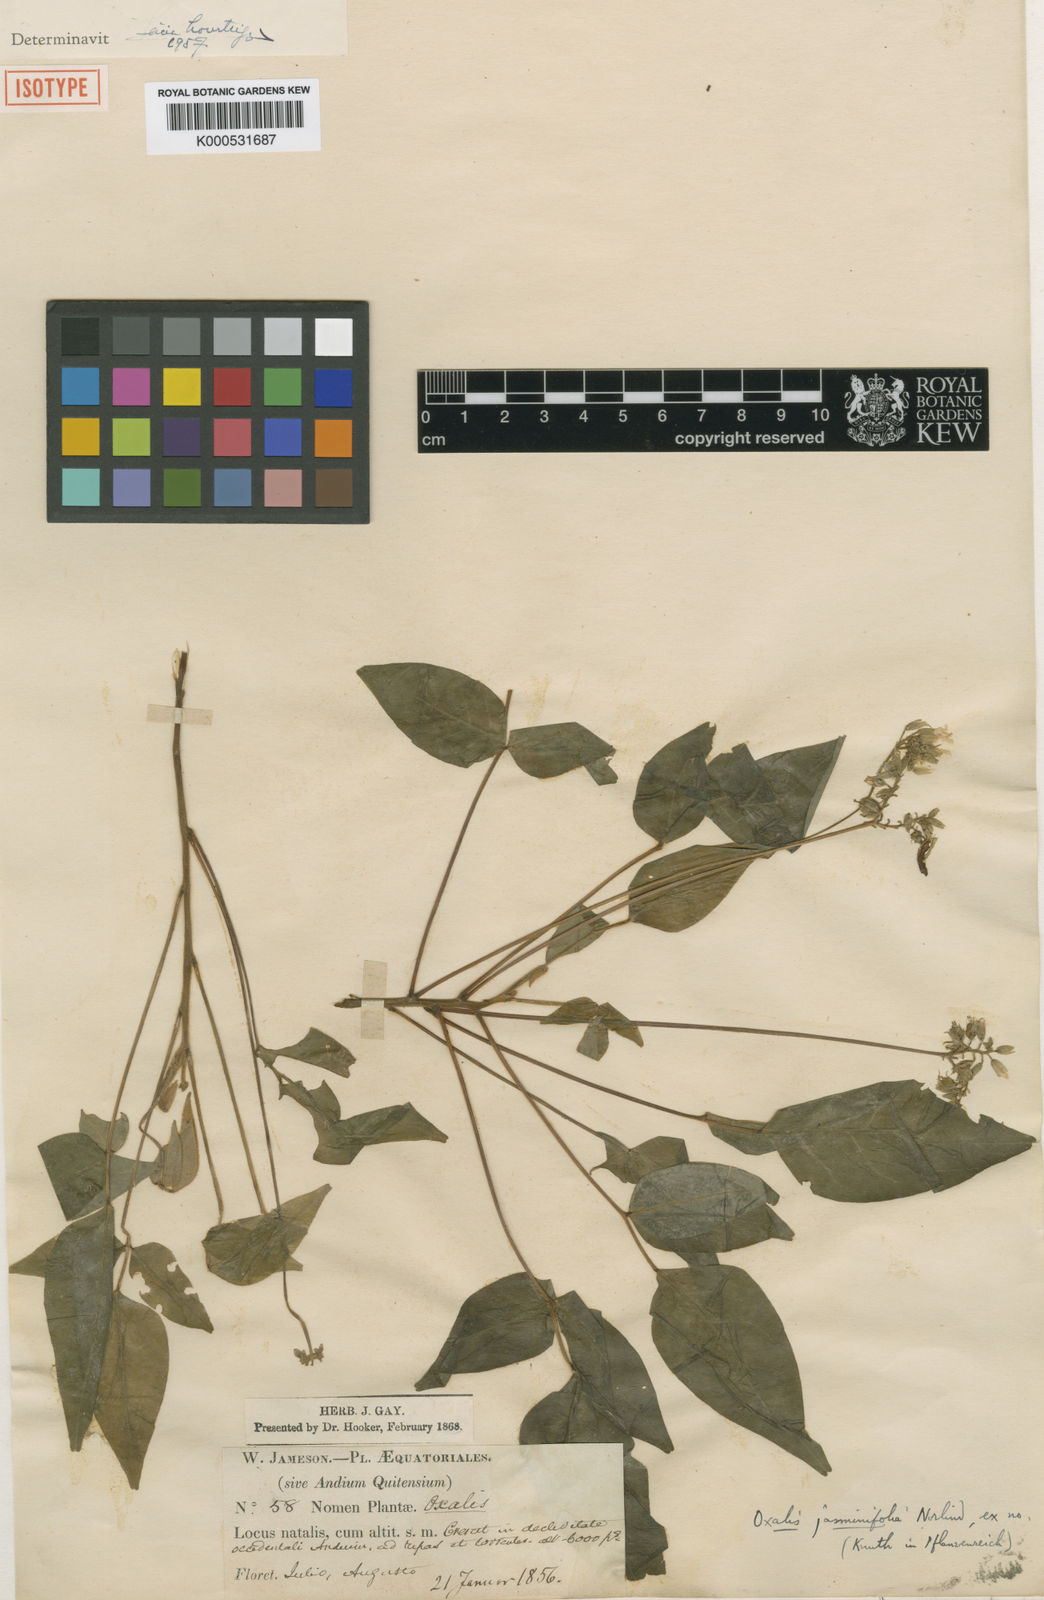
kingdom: Plantae
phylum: Tracheophyta
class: Magnoliopsida
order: Oxalidales
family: Oxalidaceae
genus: Oxalis
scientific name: Oxalis jamesonii
